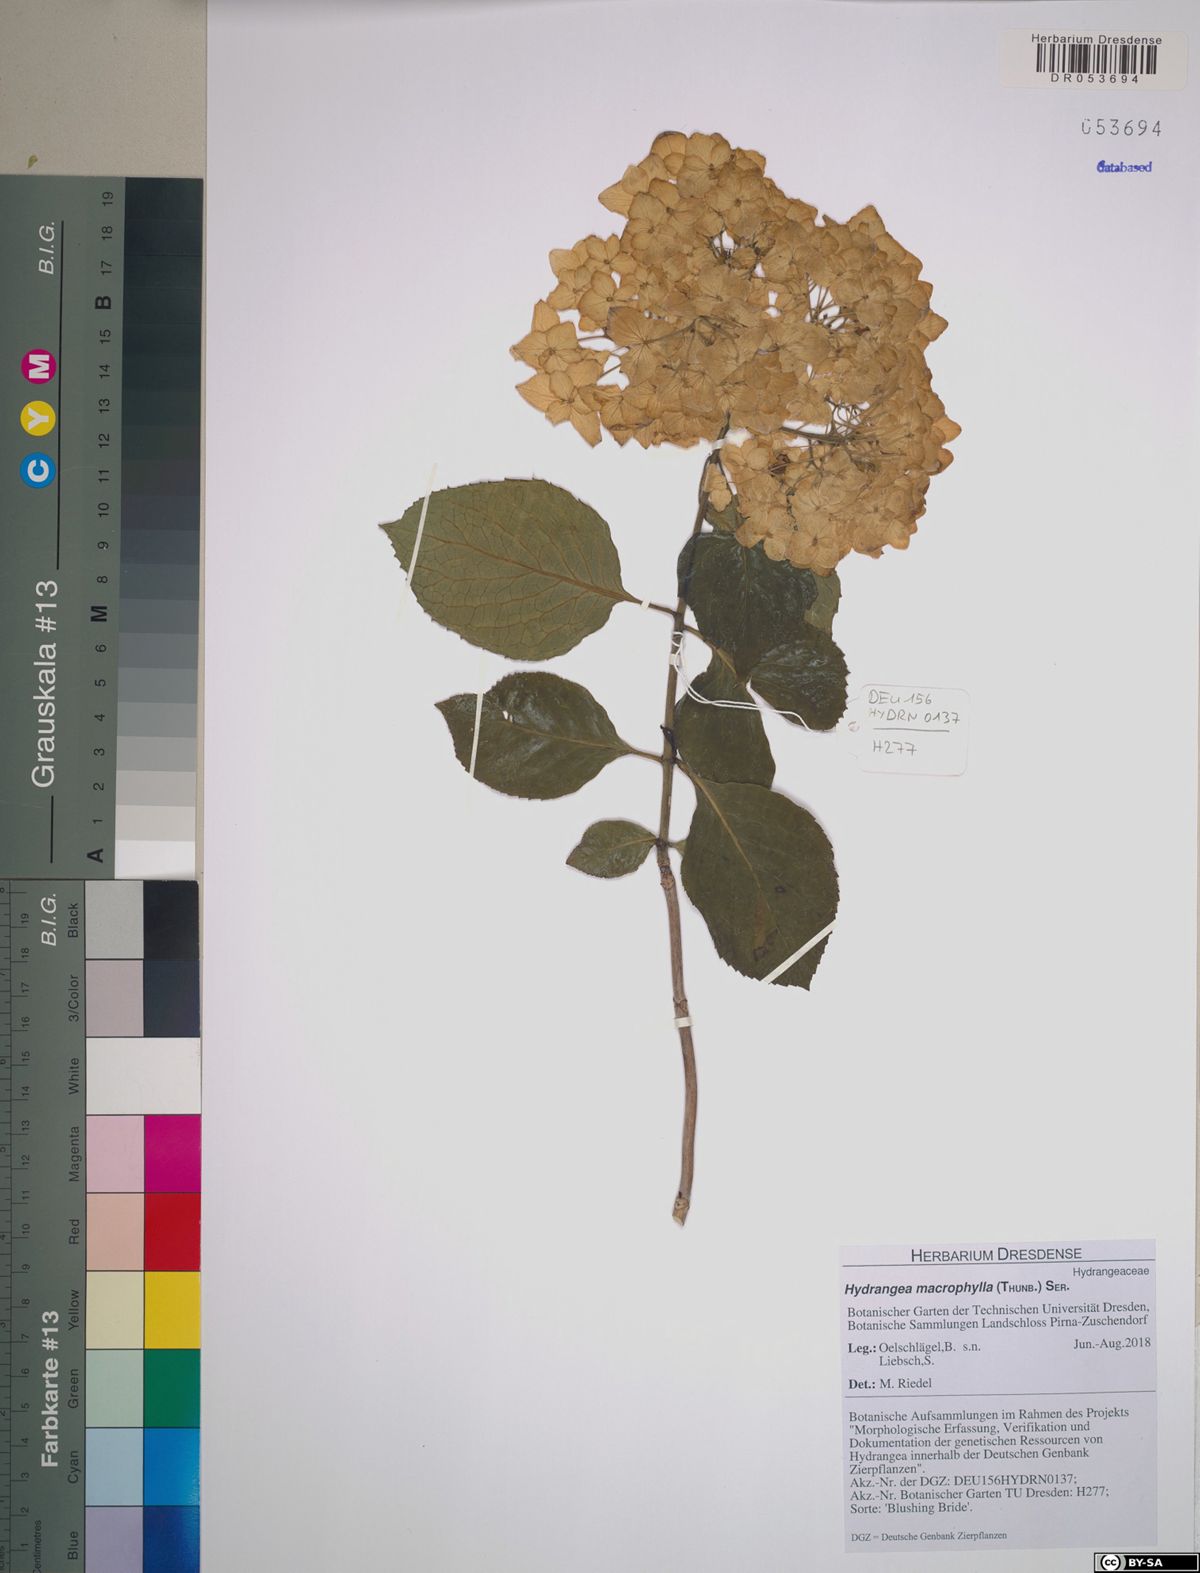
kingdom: Plantae
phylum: Tracheophyta
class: Magnoliopsida
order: Cornales
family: Hydrangeaceae
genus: Hydrangea
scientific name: Hydrangea macrophylla
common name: Hydrangea
